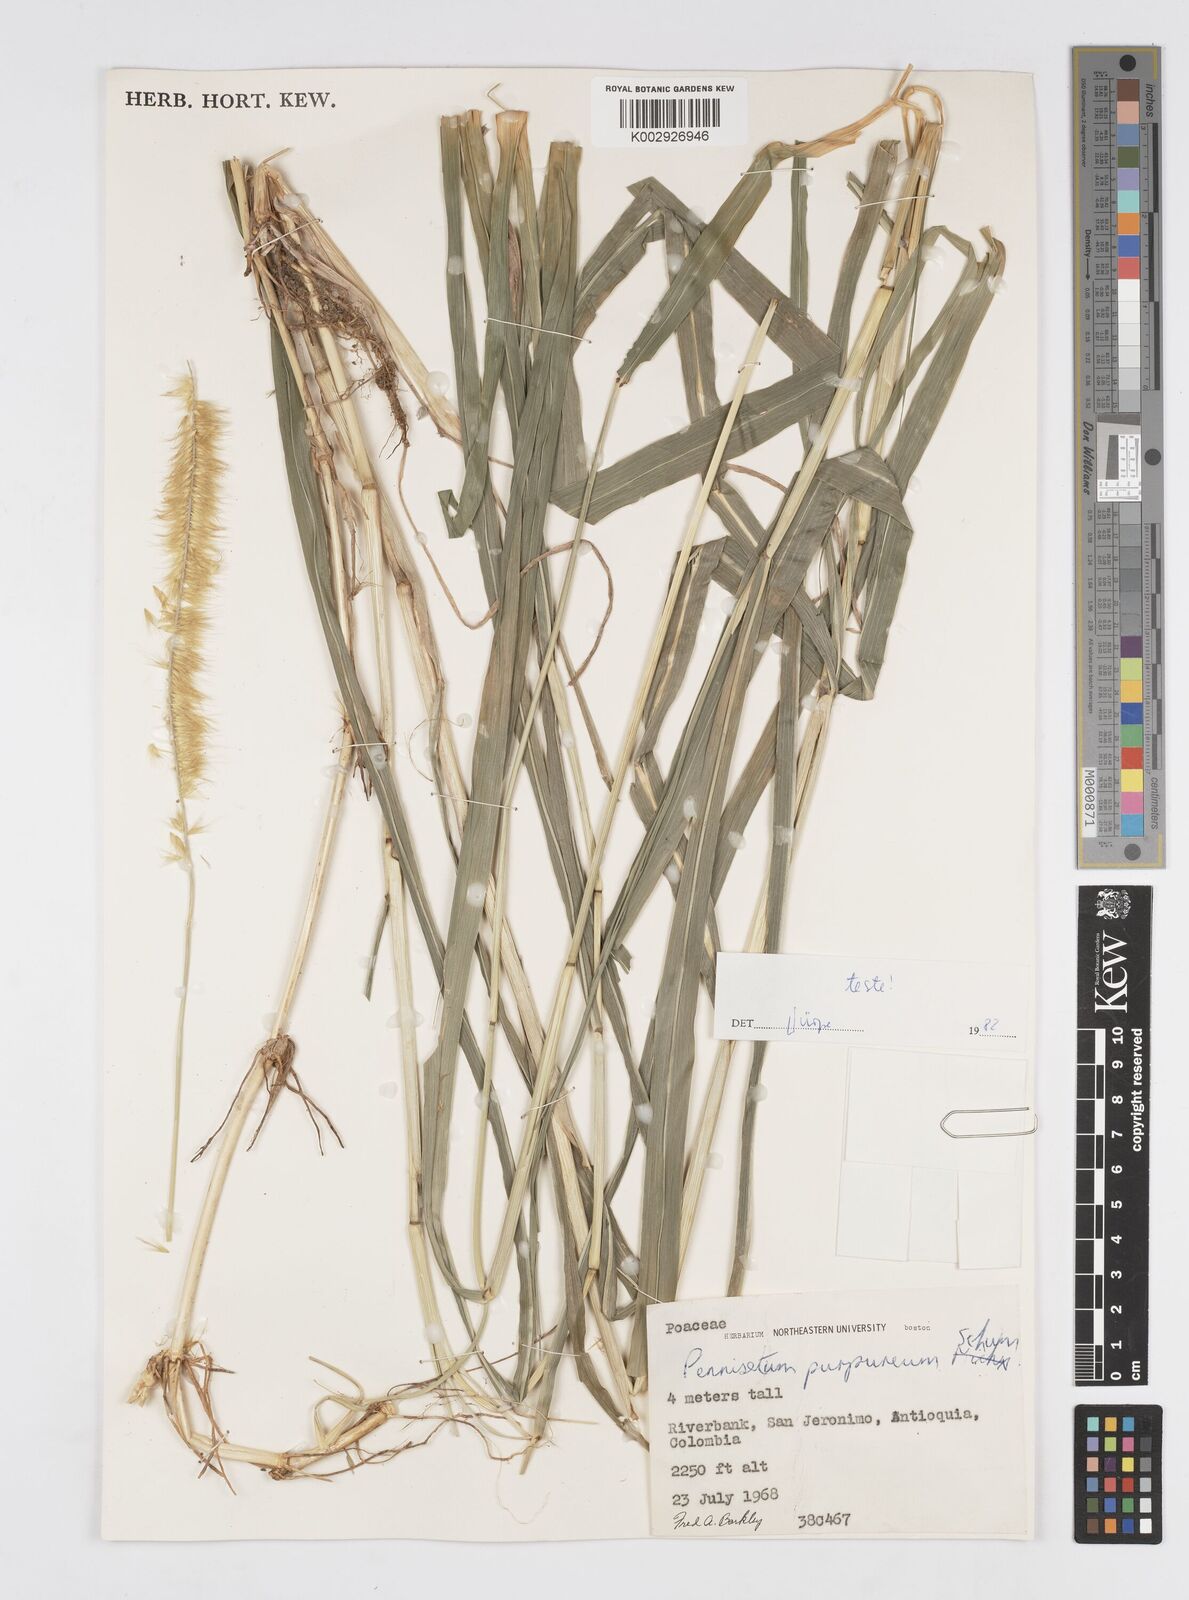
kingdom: Plantae
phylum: Tracheophyta
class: Liliopsida
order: Poales
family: Poaceae
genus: Cenchrus
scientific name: Cenchrus purpureus
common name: Elephant grass
